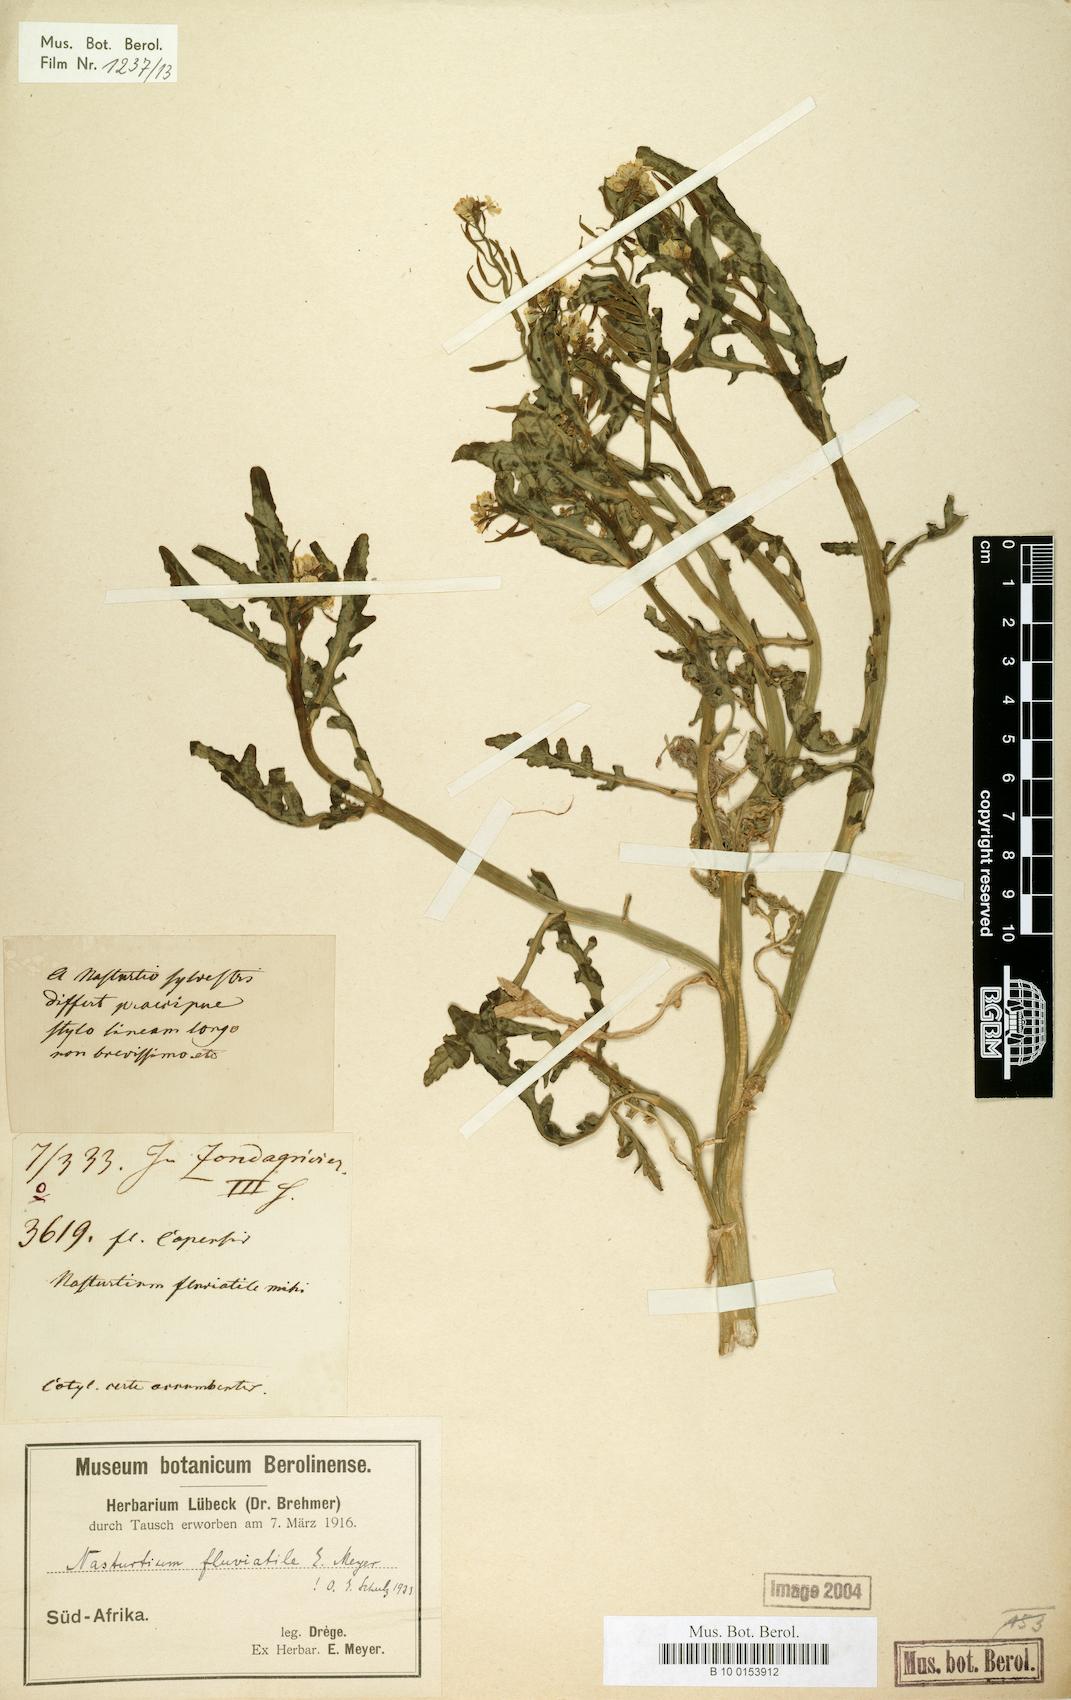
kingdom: Plantae
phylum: Tracheophyta
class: Magnoliopsida
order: Brassicales
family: Brassicaceae
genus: Rorippa
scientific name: Rorippa fluviatilis
